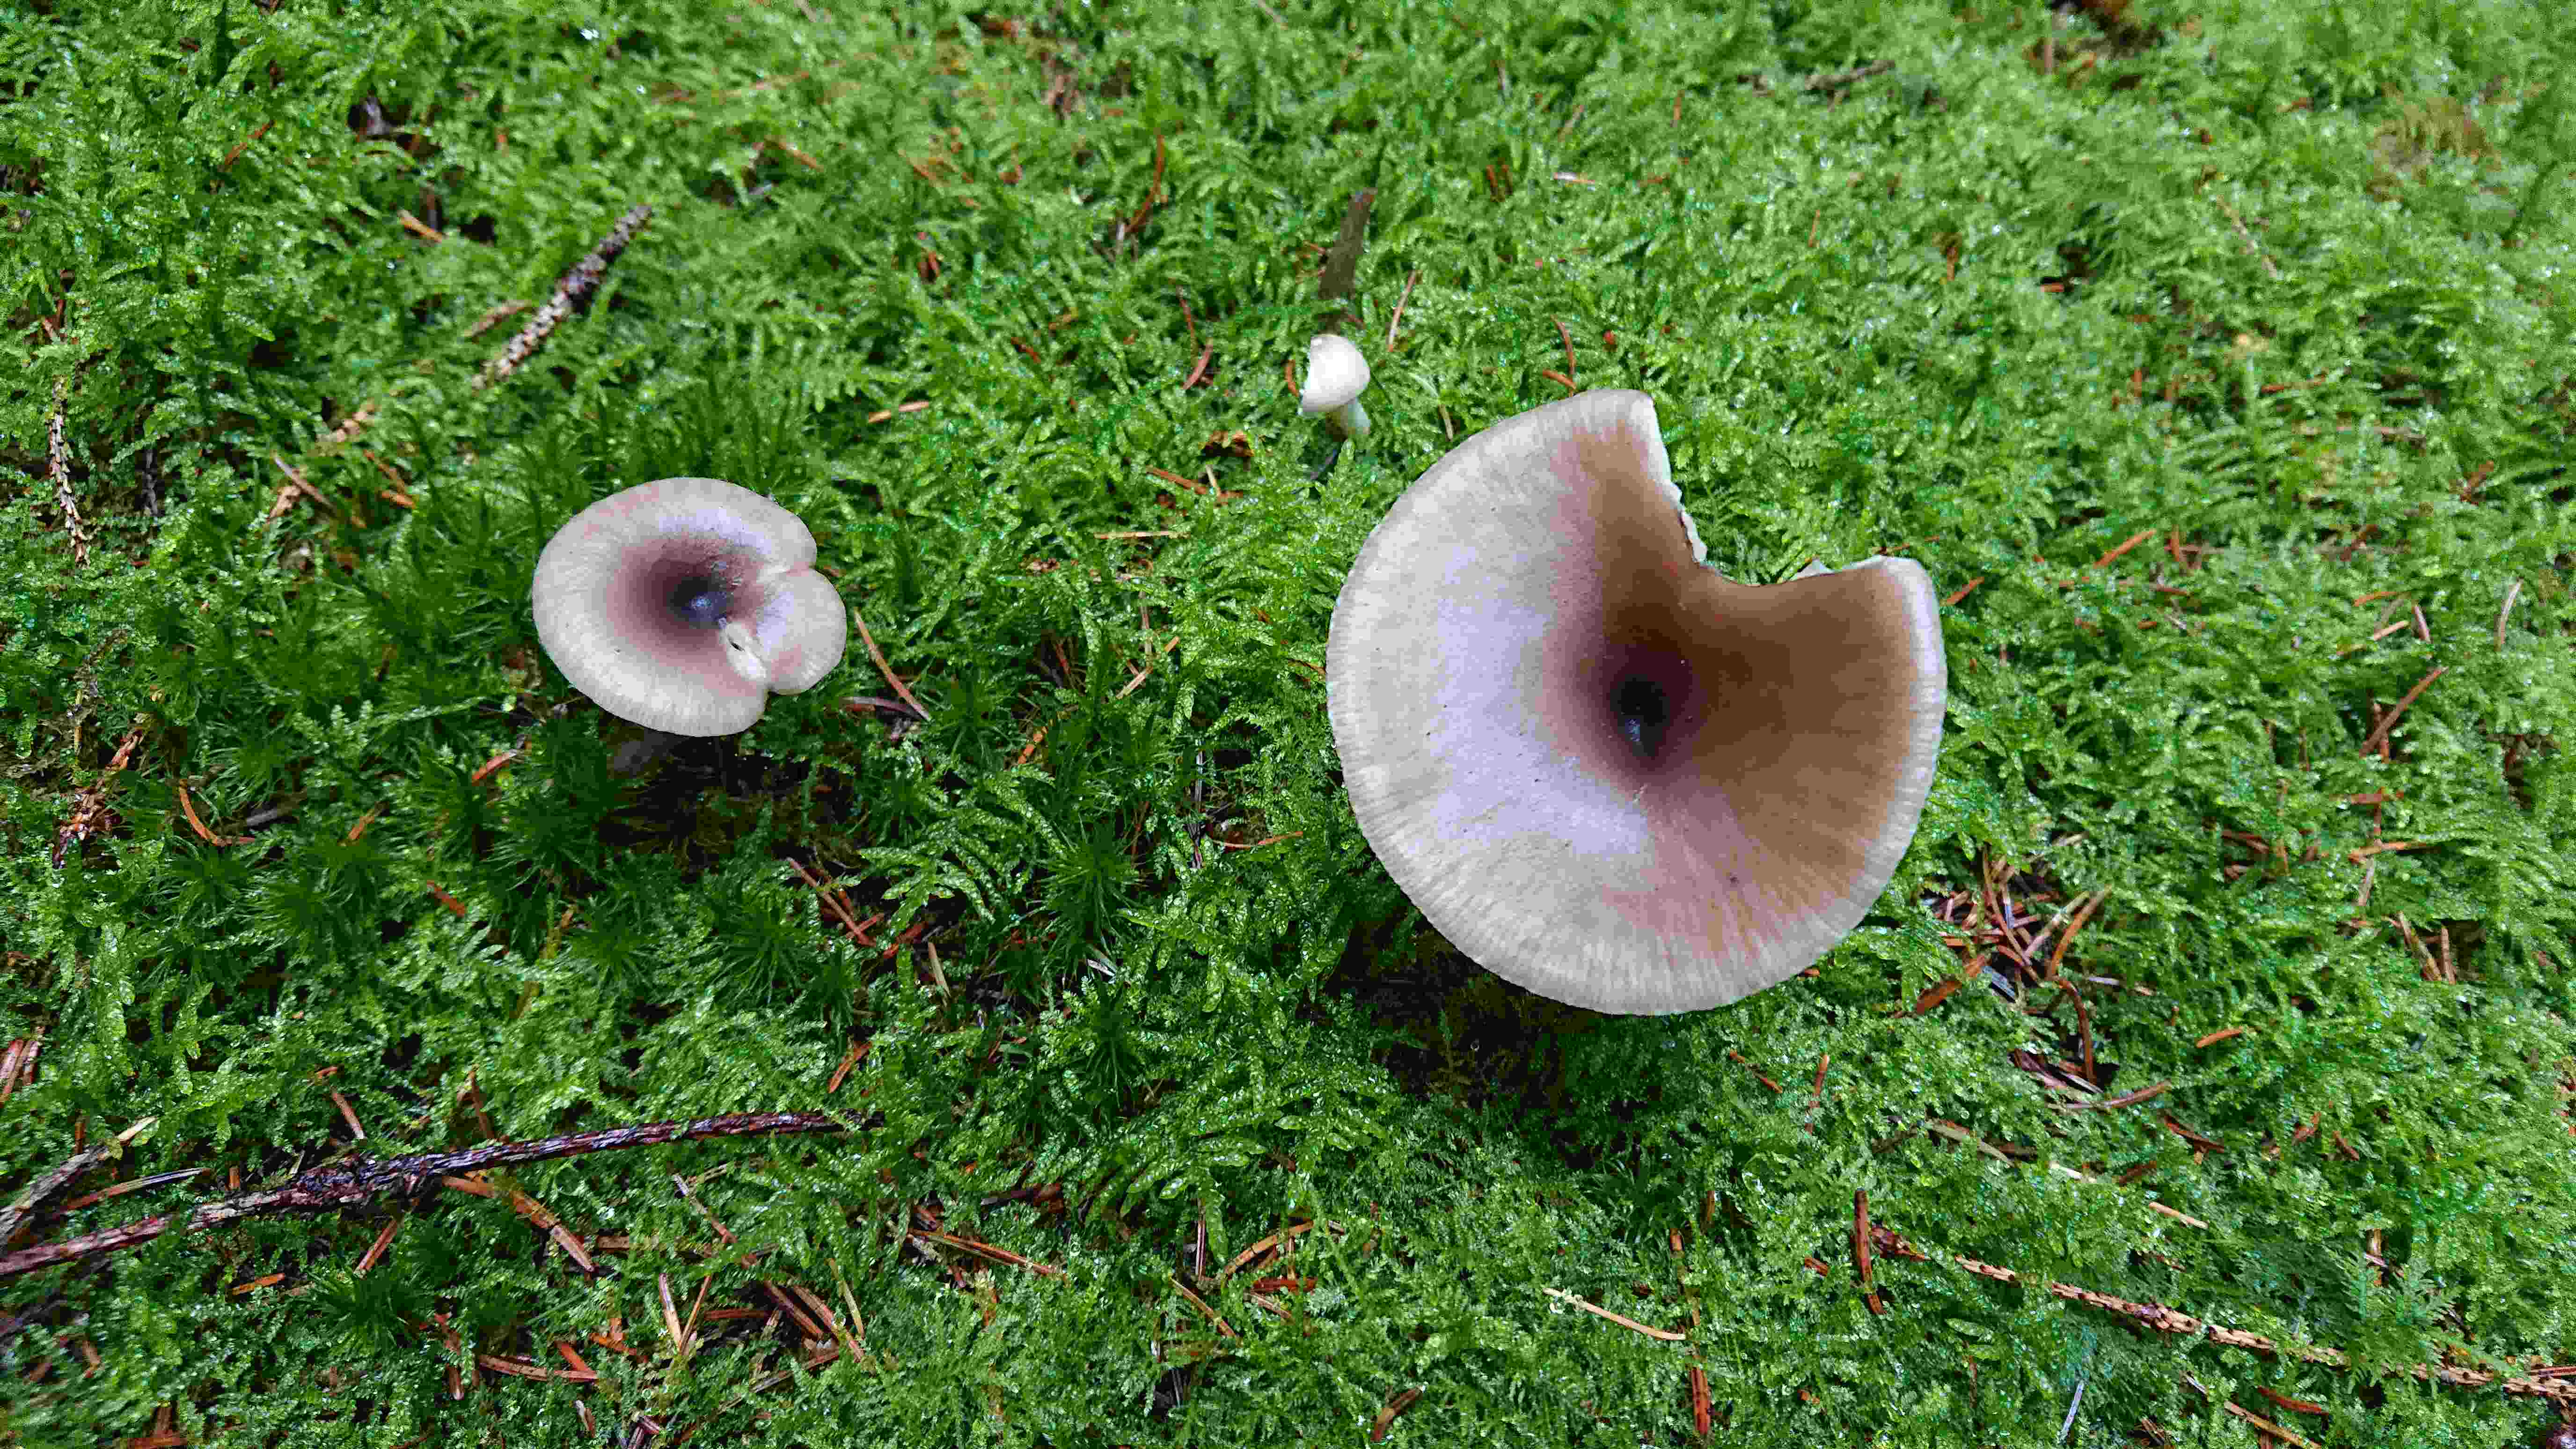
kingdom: Fungi
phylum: Basidiomycota
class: Agaricomycetes
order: Agaricales
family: Pseudoclitocybaceae
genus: Pseudoclitocybe
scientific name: Pseudoclitocybe cyathiformis
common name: almindelig bægertragthat
